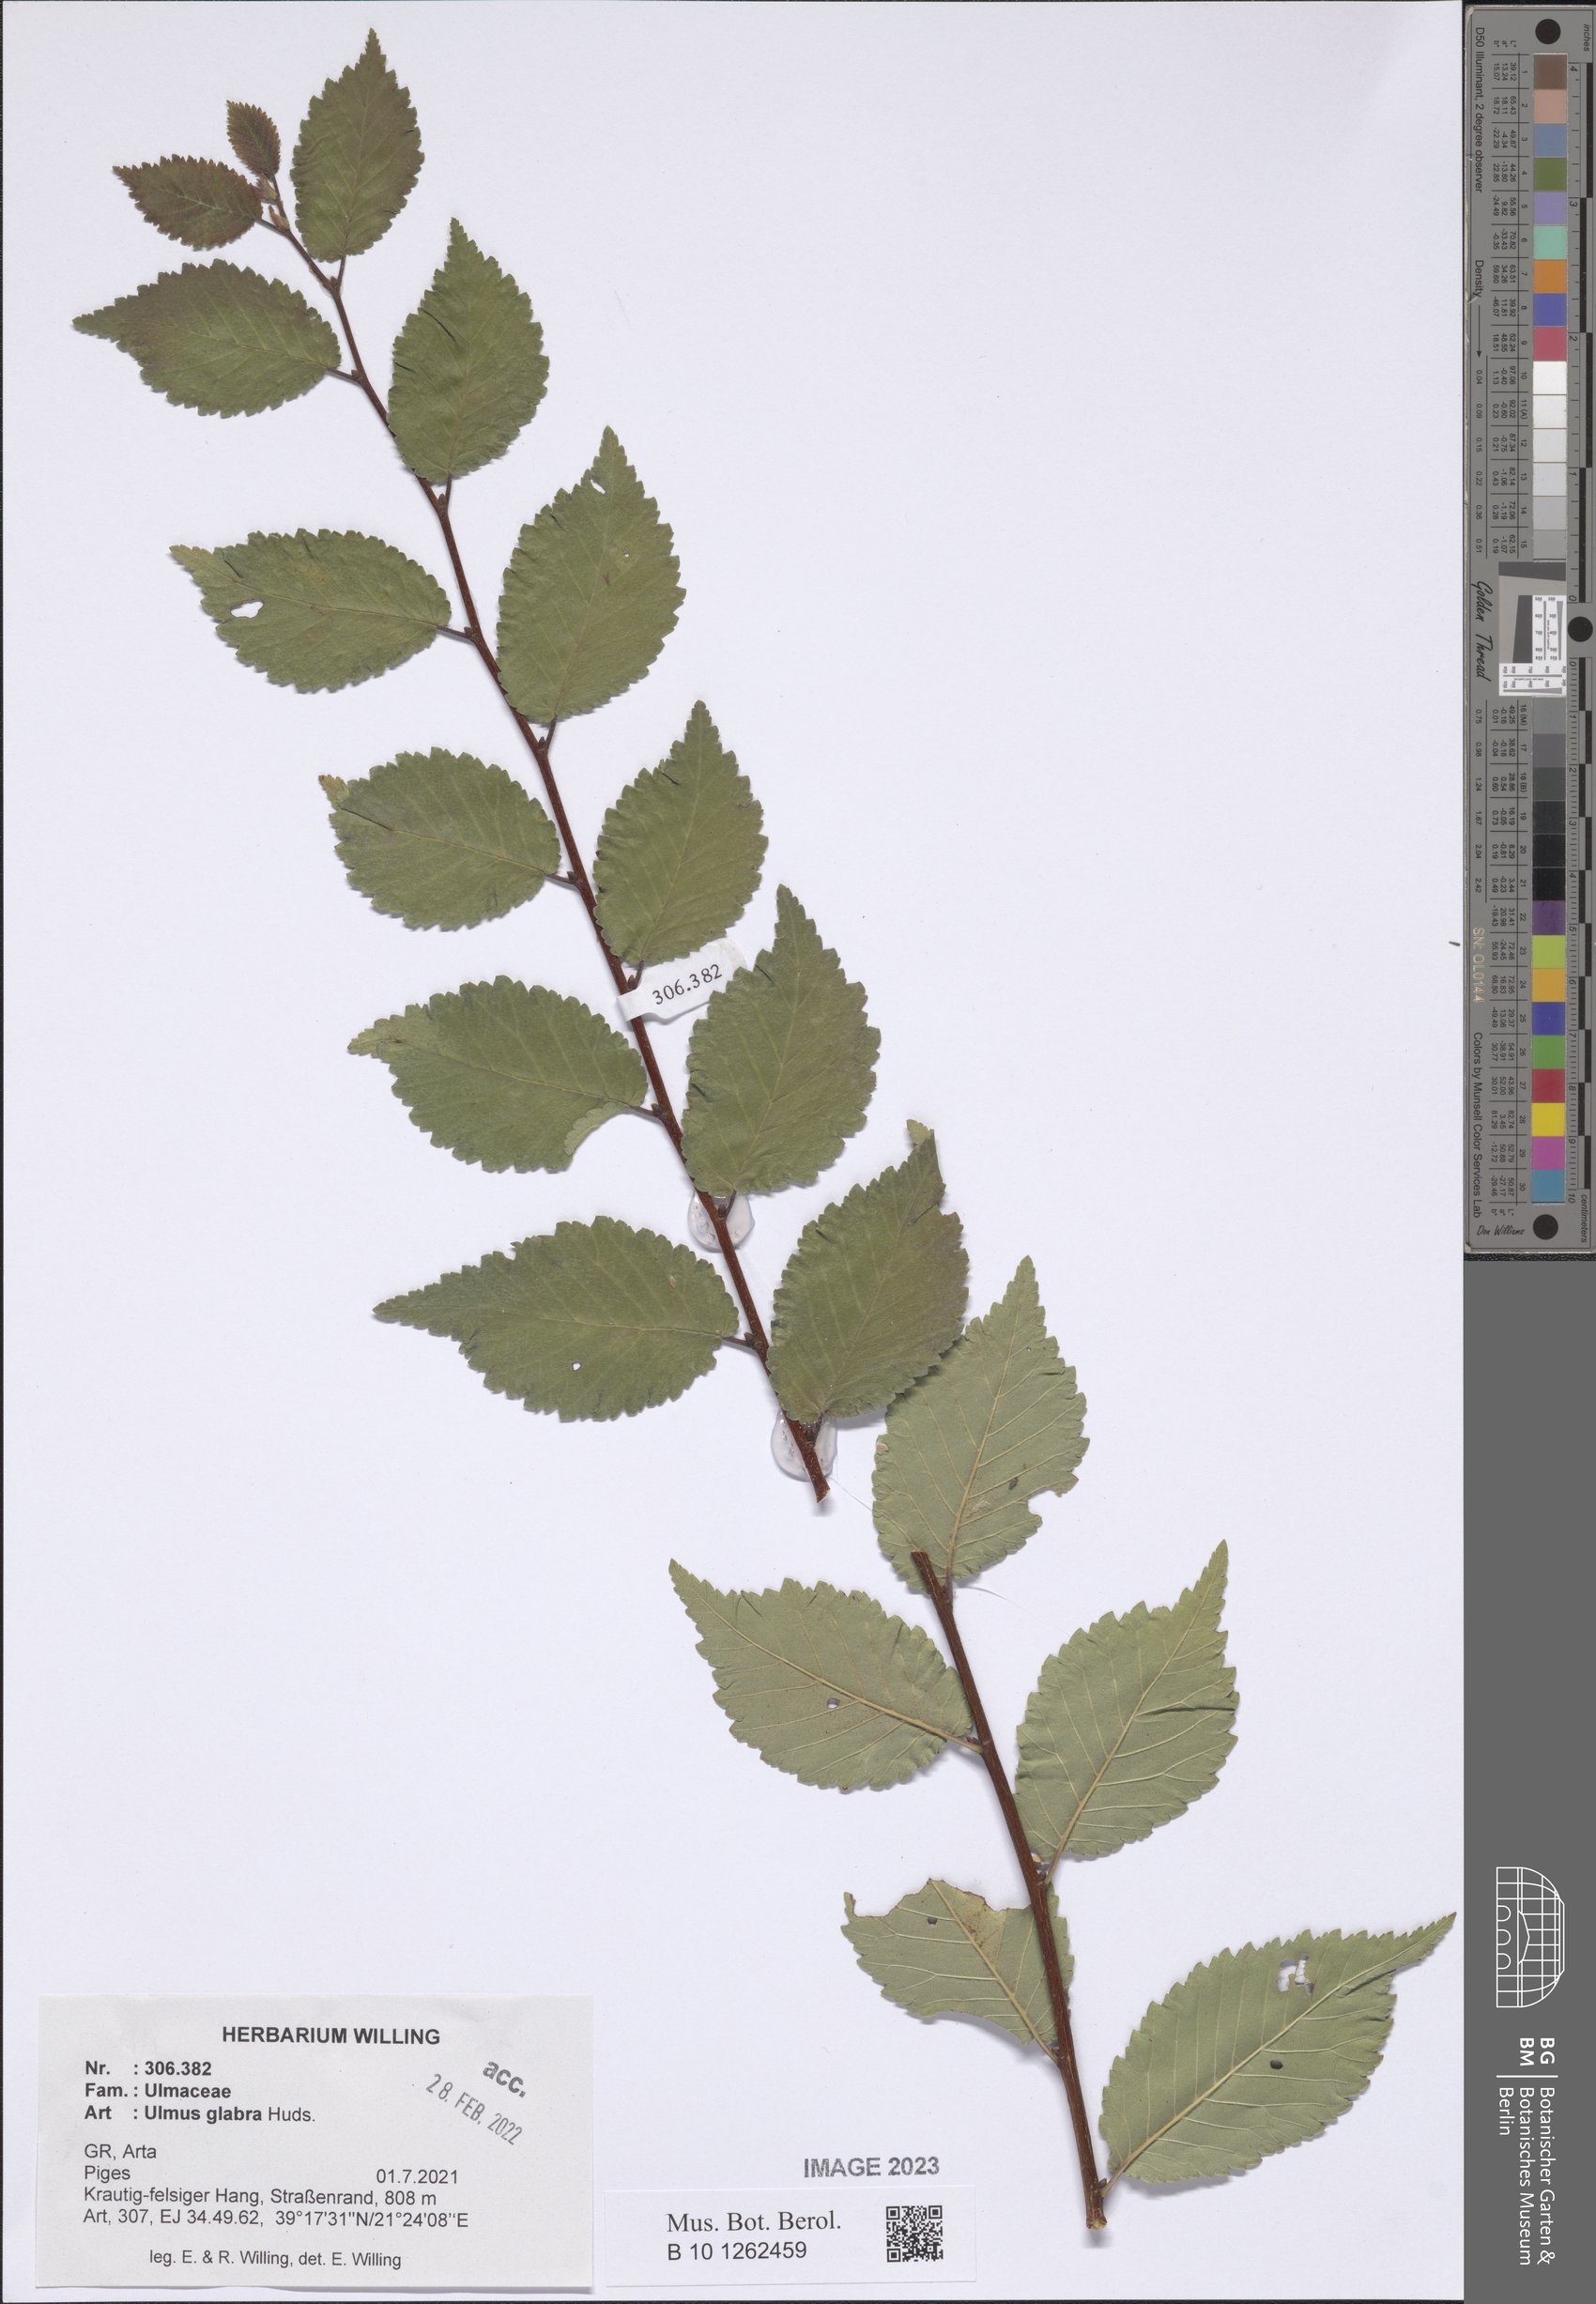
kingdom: Plantae
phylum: Tracheophyta
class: Magnoliopsida
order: Rosales
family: Ulmaceae
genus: Ulmus
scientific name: Ulmus glabra
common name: Wych elm
